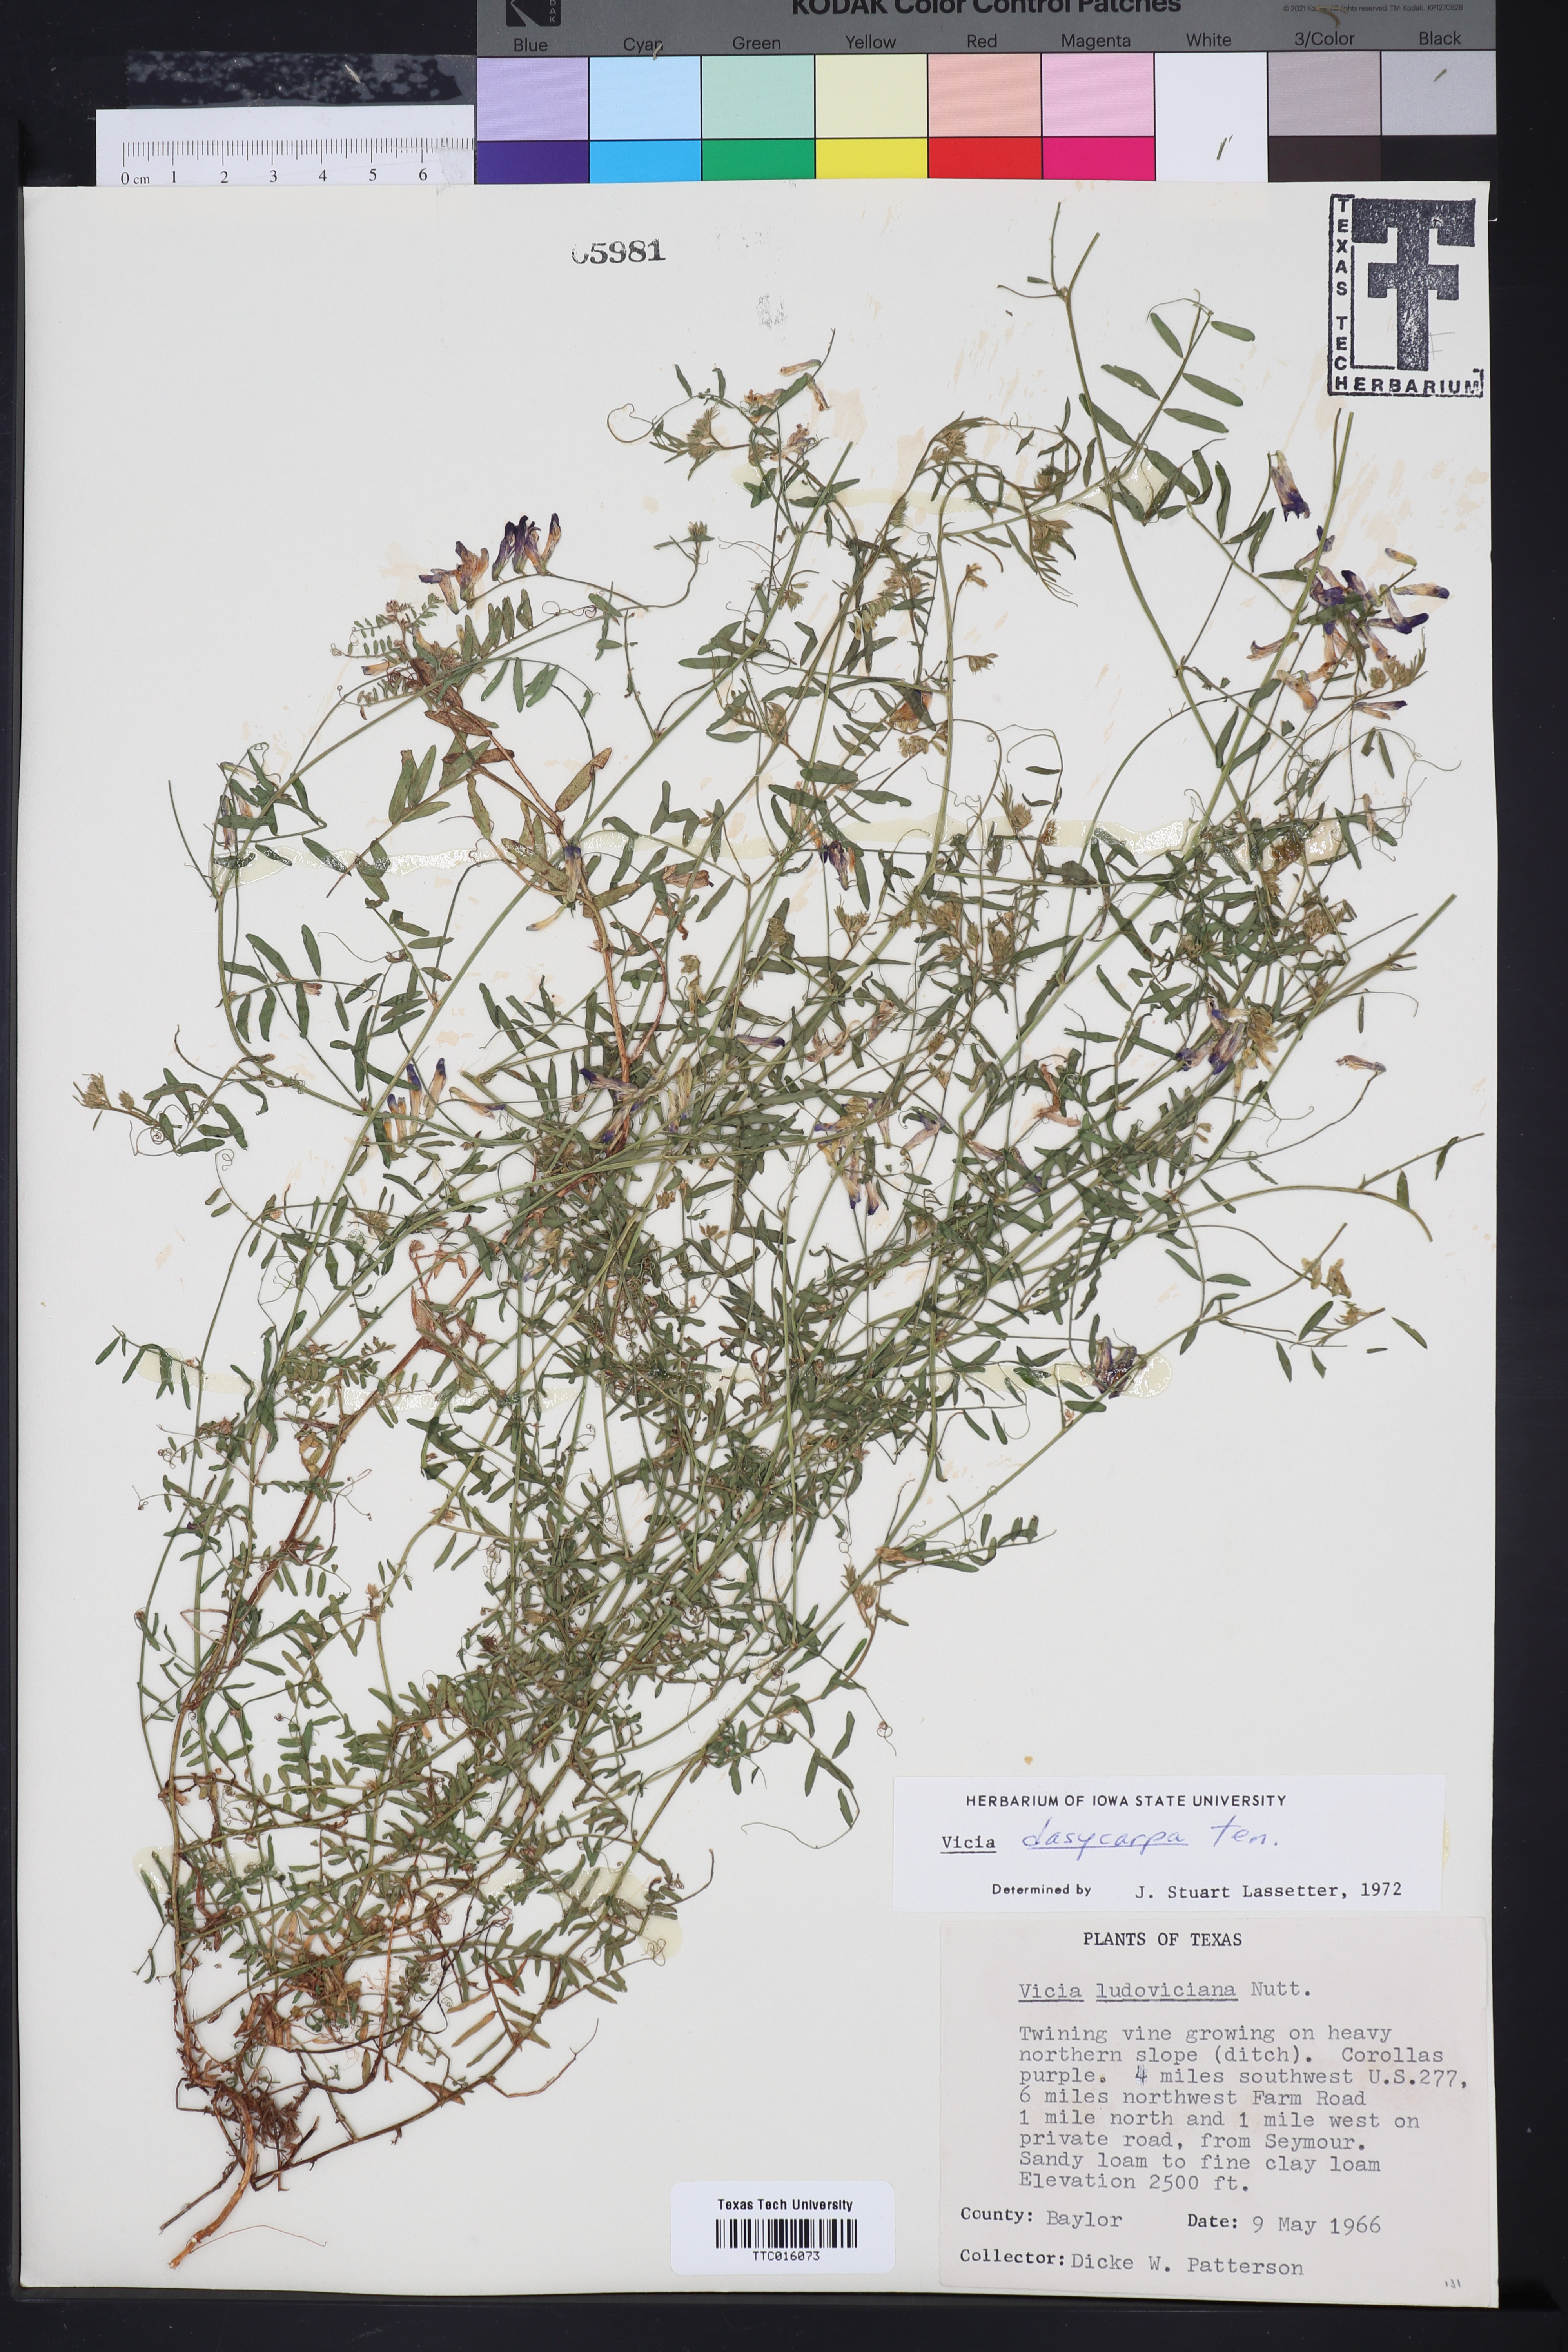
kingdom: Plantae
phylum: Tracheophyta
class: Magnoliopsida
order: Fabales
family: Fabaceae
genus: Vicia
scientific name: Vicia villosa
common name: Fodder vetch
